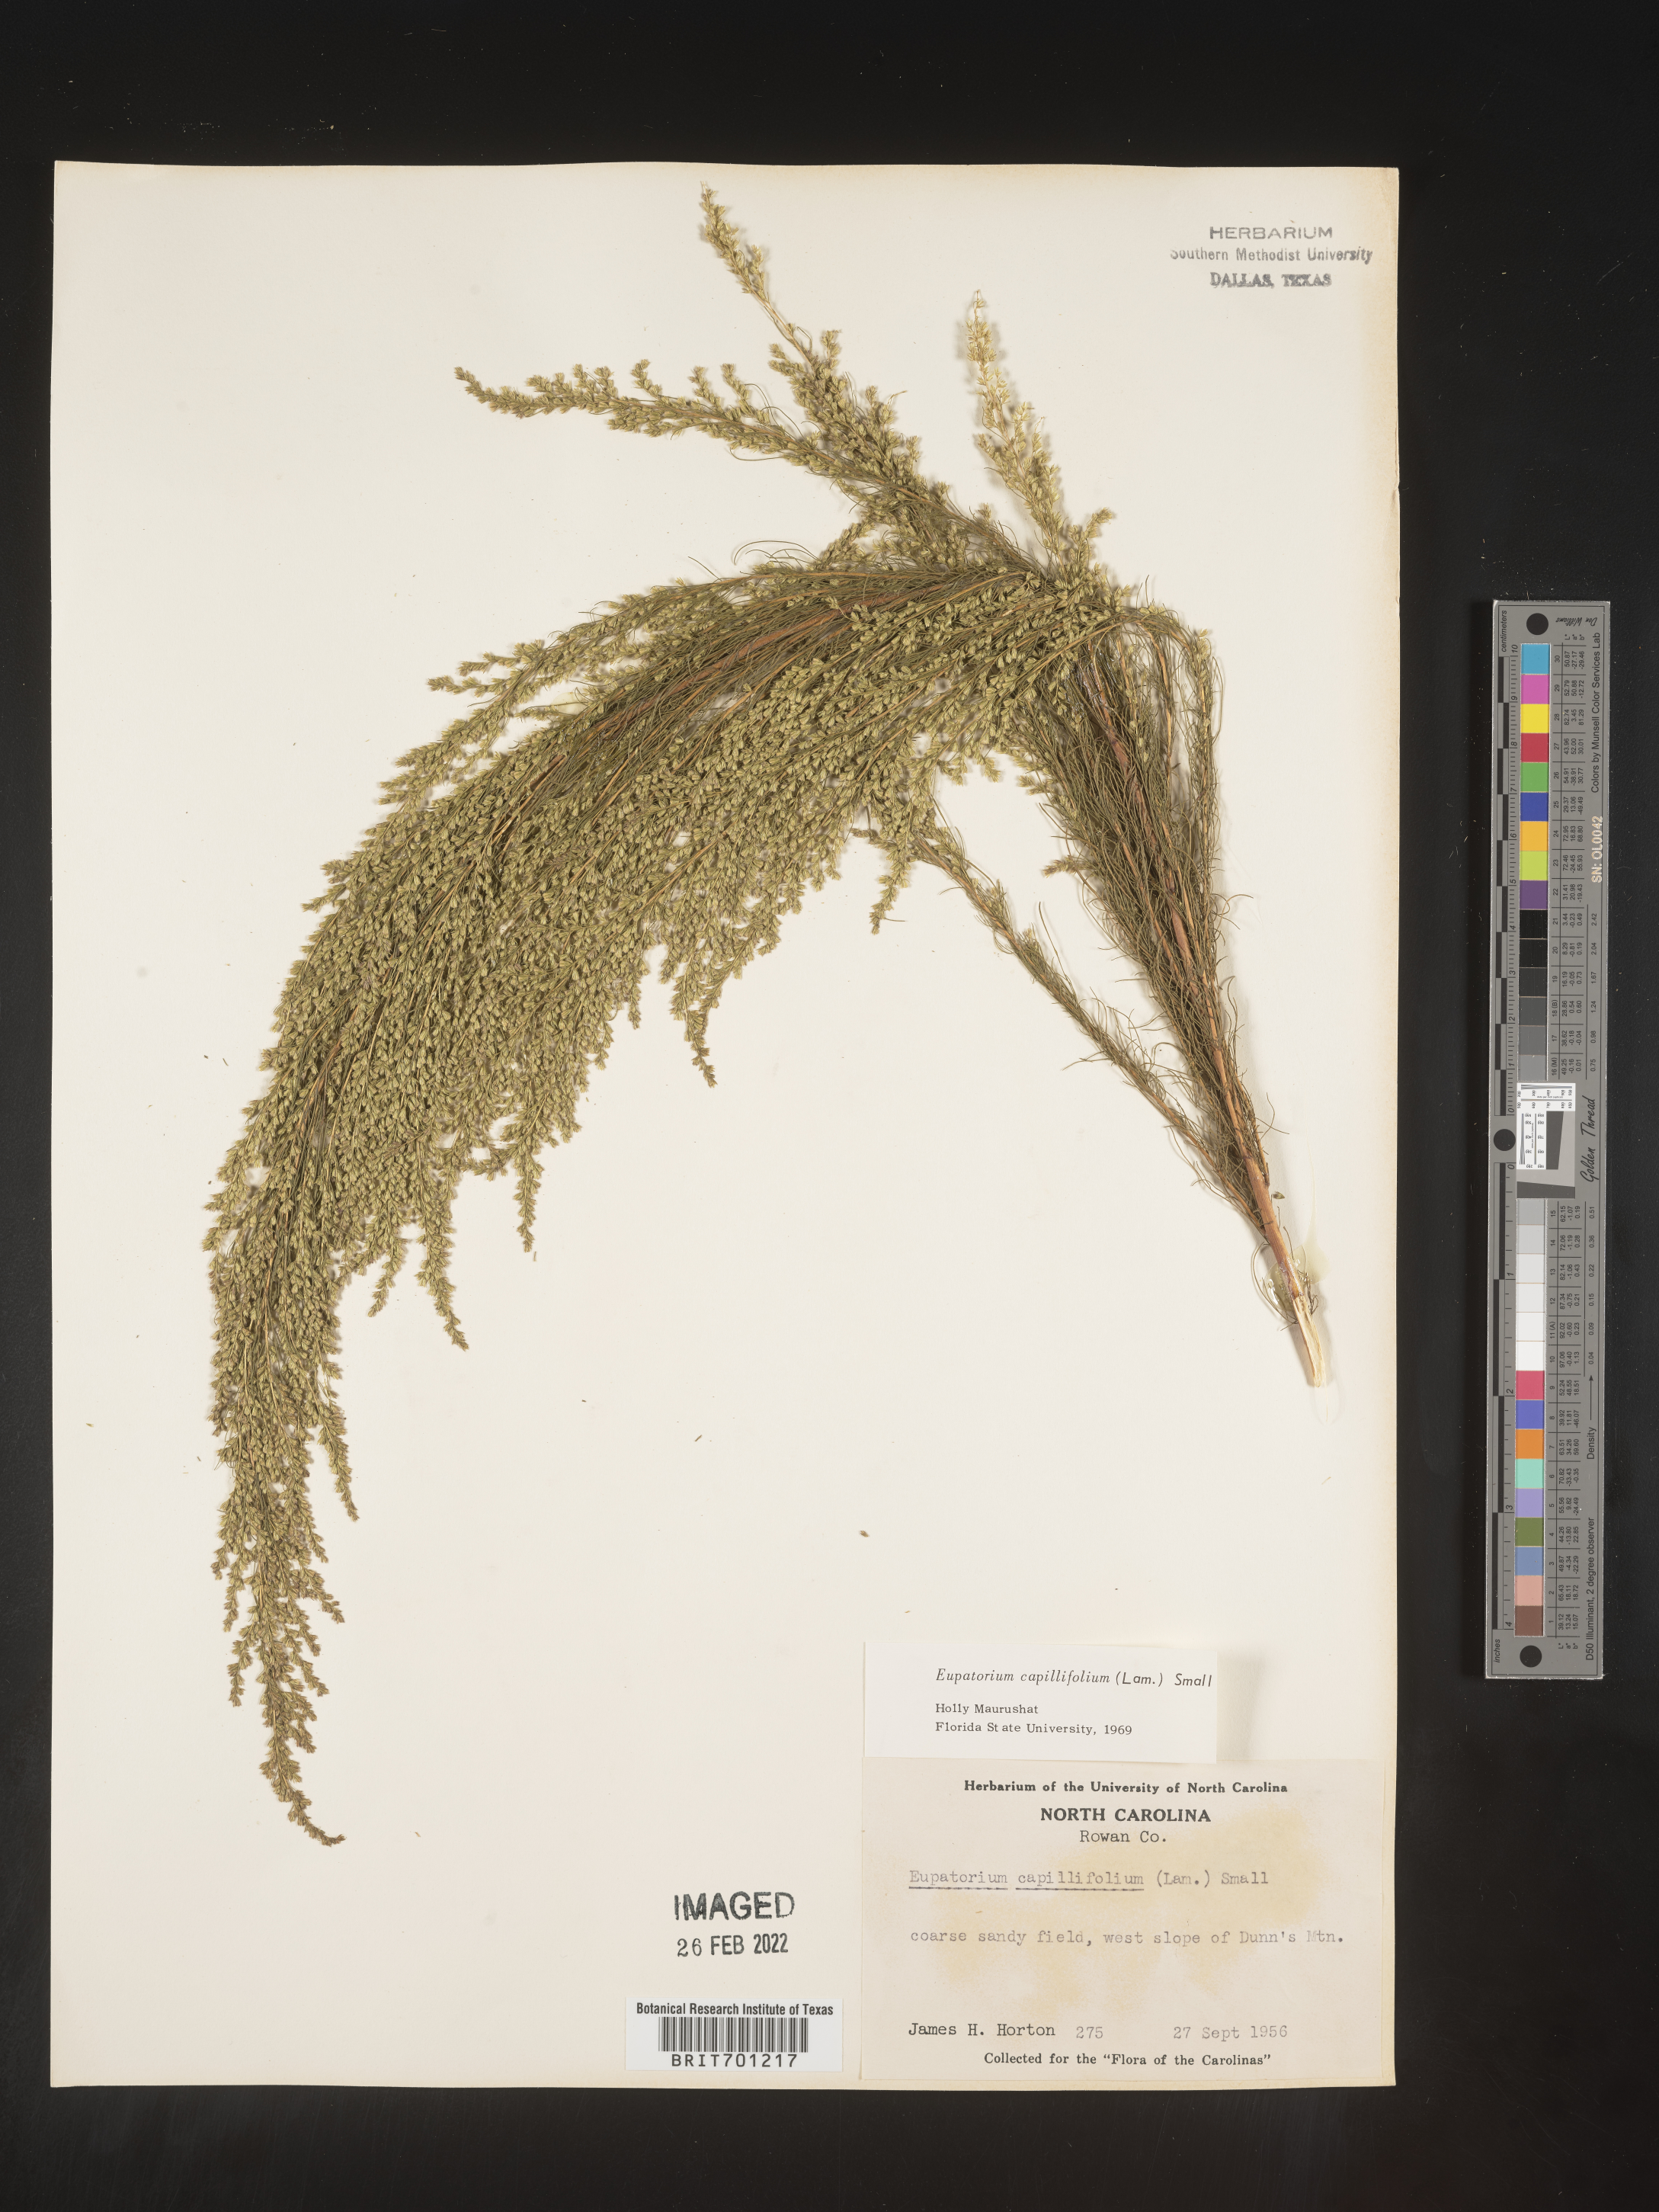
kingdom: Plantae
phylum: Tracheophyta
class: Magnoliopsida
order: Asterales
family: Asteraceae
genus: Eupatorium
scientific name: Eupatorium capillifolium
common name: Dog-fennel
